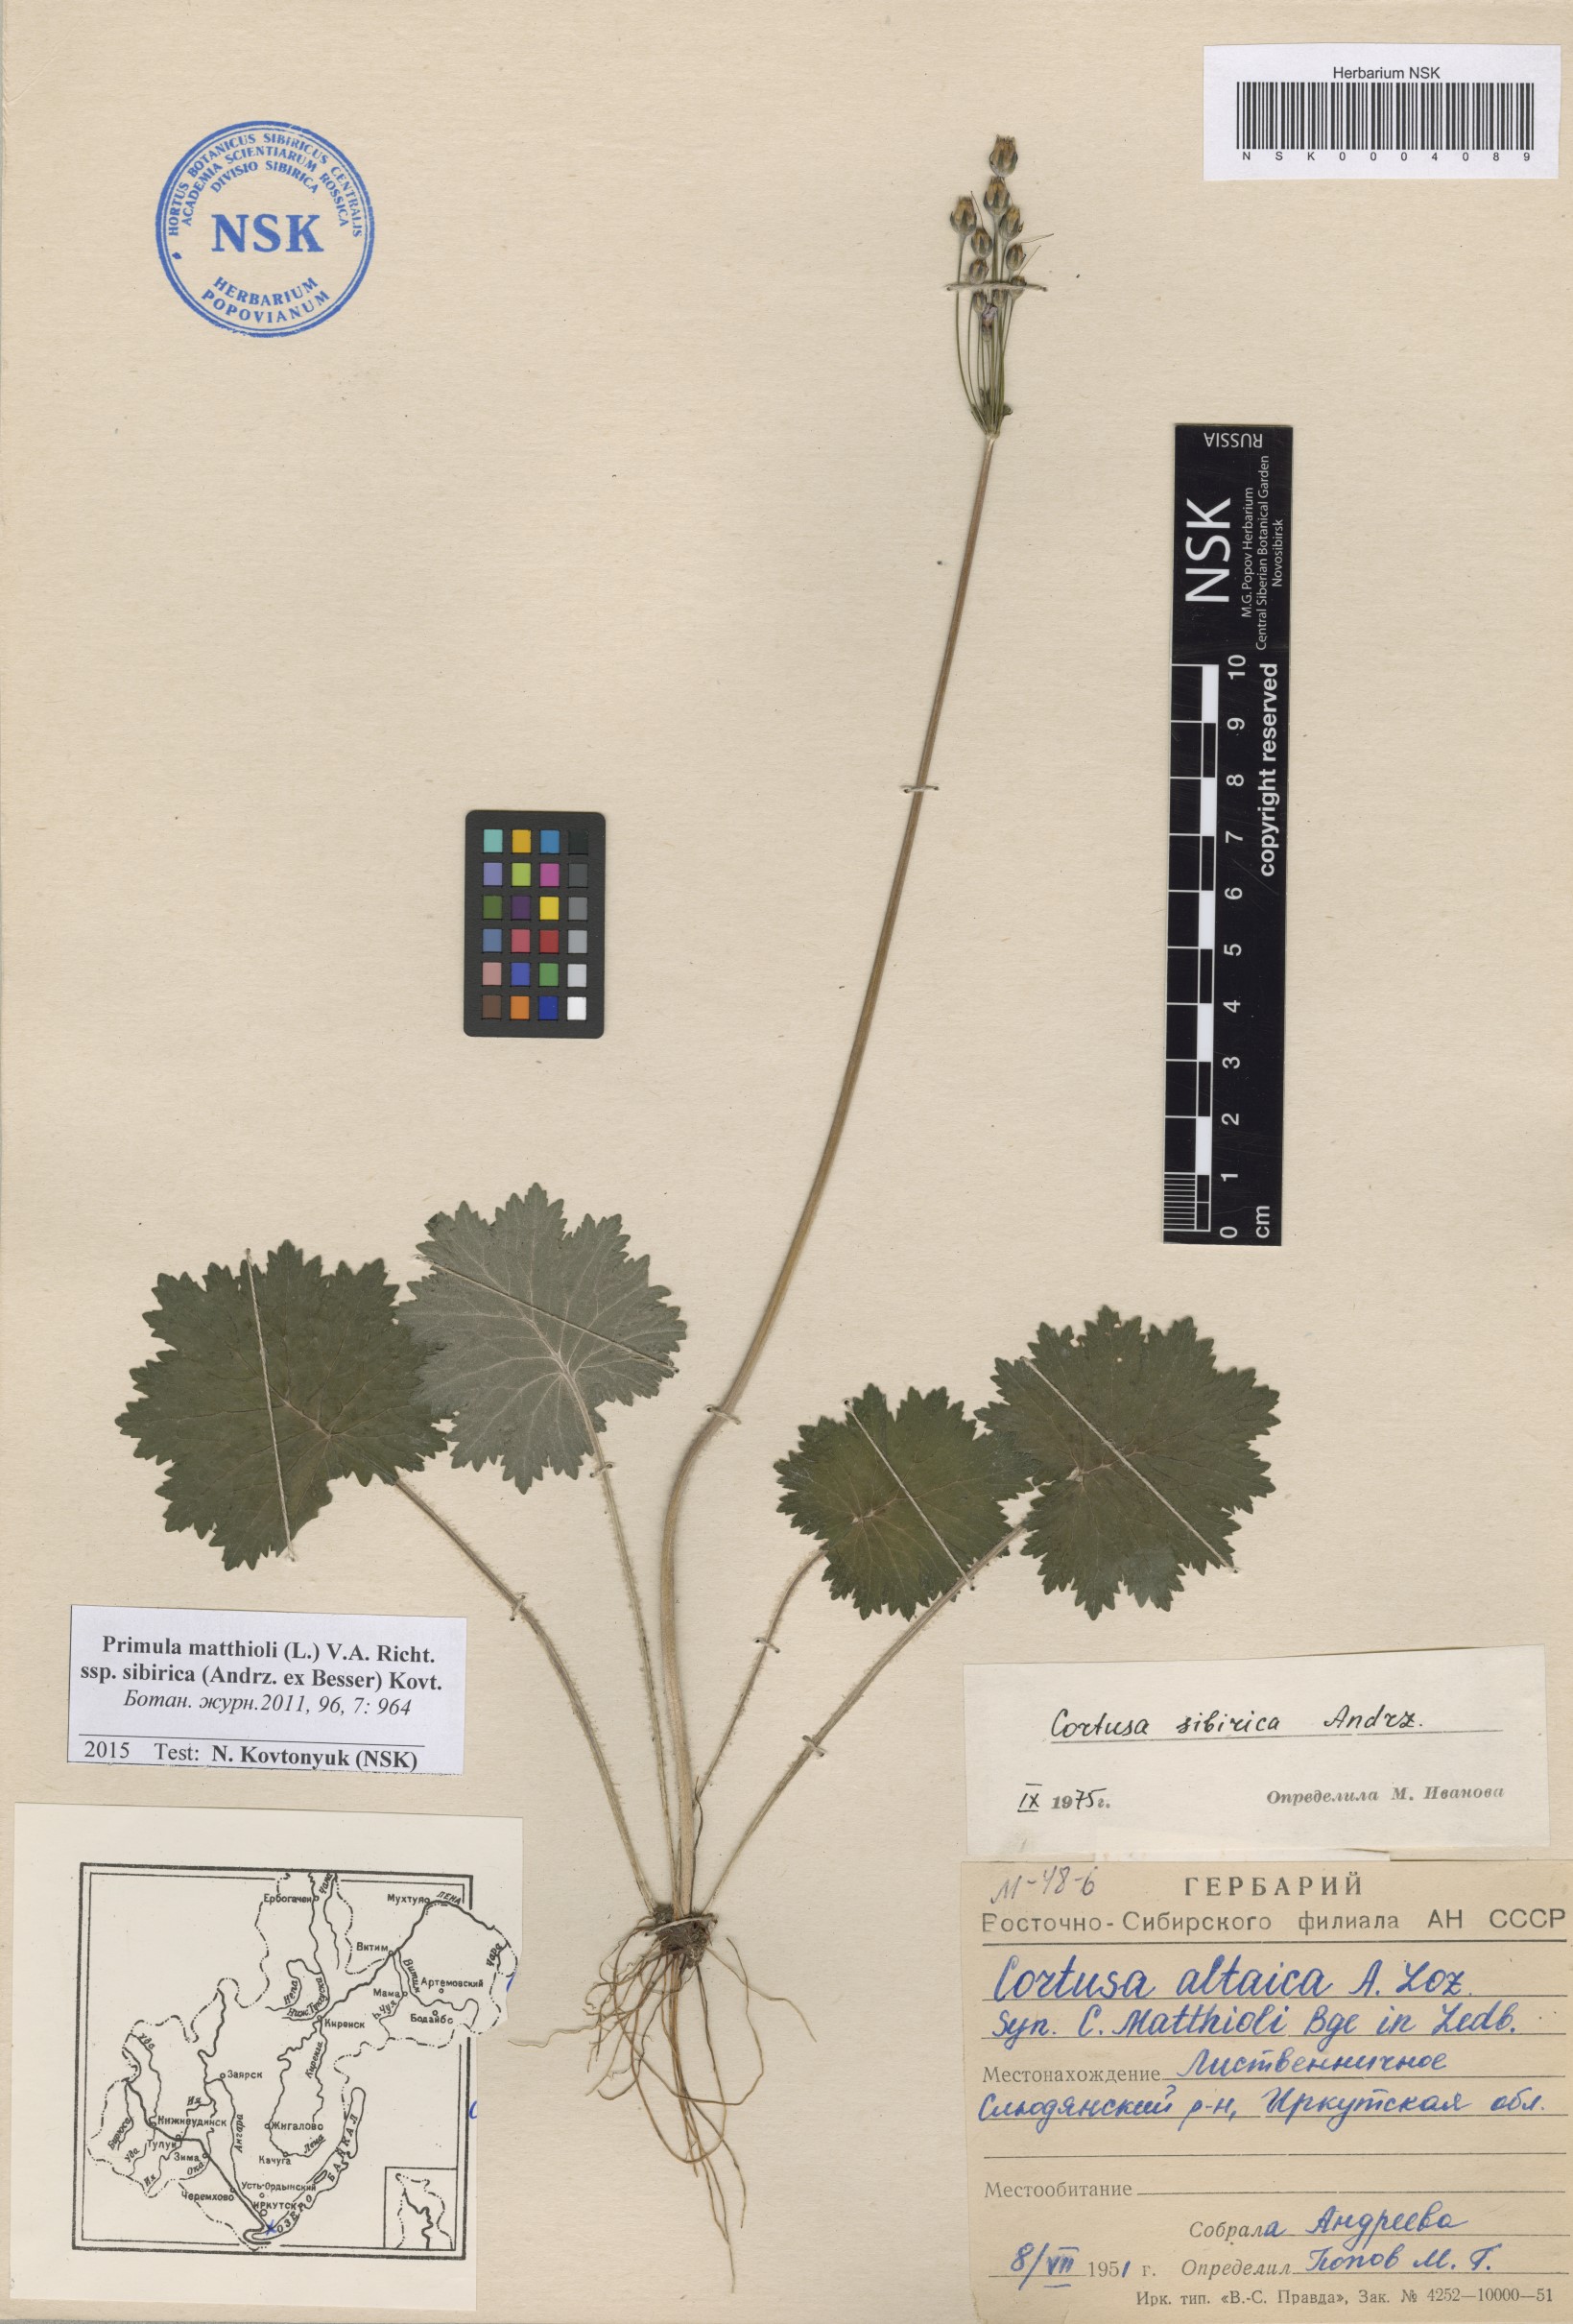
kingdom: Plantae
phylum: Tracheophyta
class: Magnoliopsida
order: Ericales
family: Primulaceae
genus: Primula
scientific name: Primula matthioli
